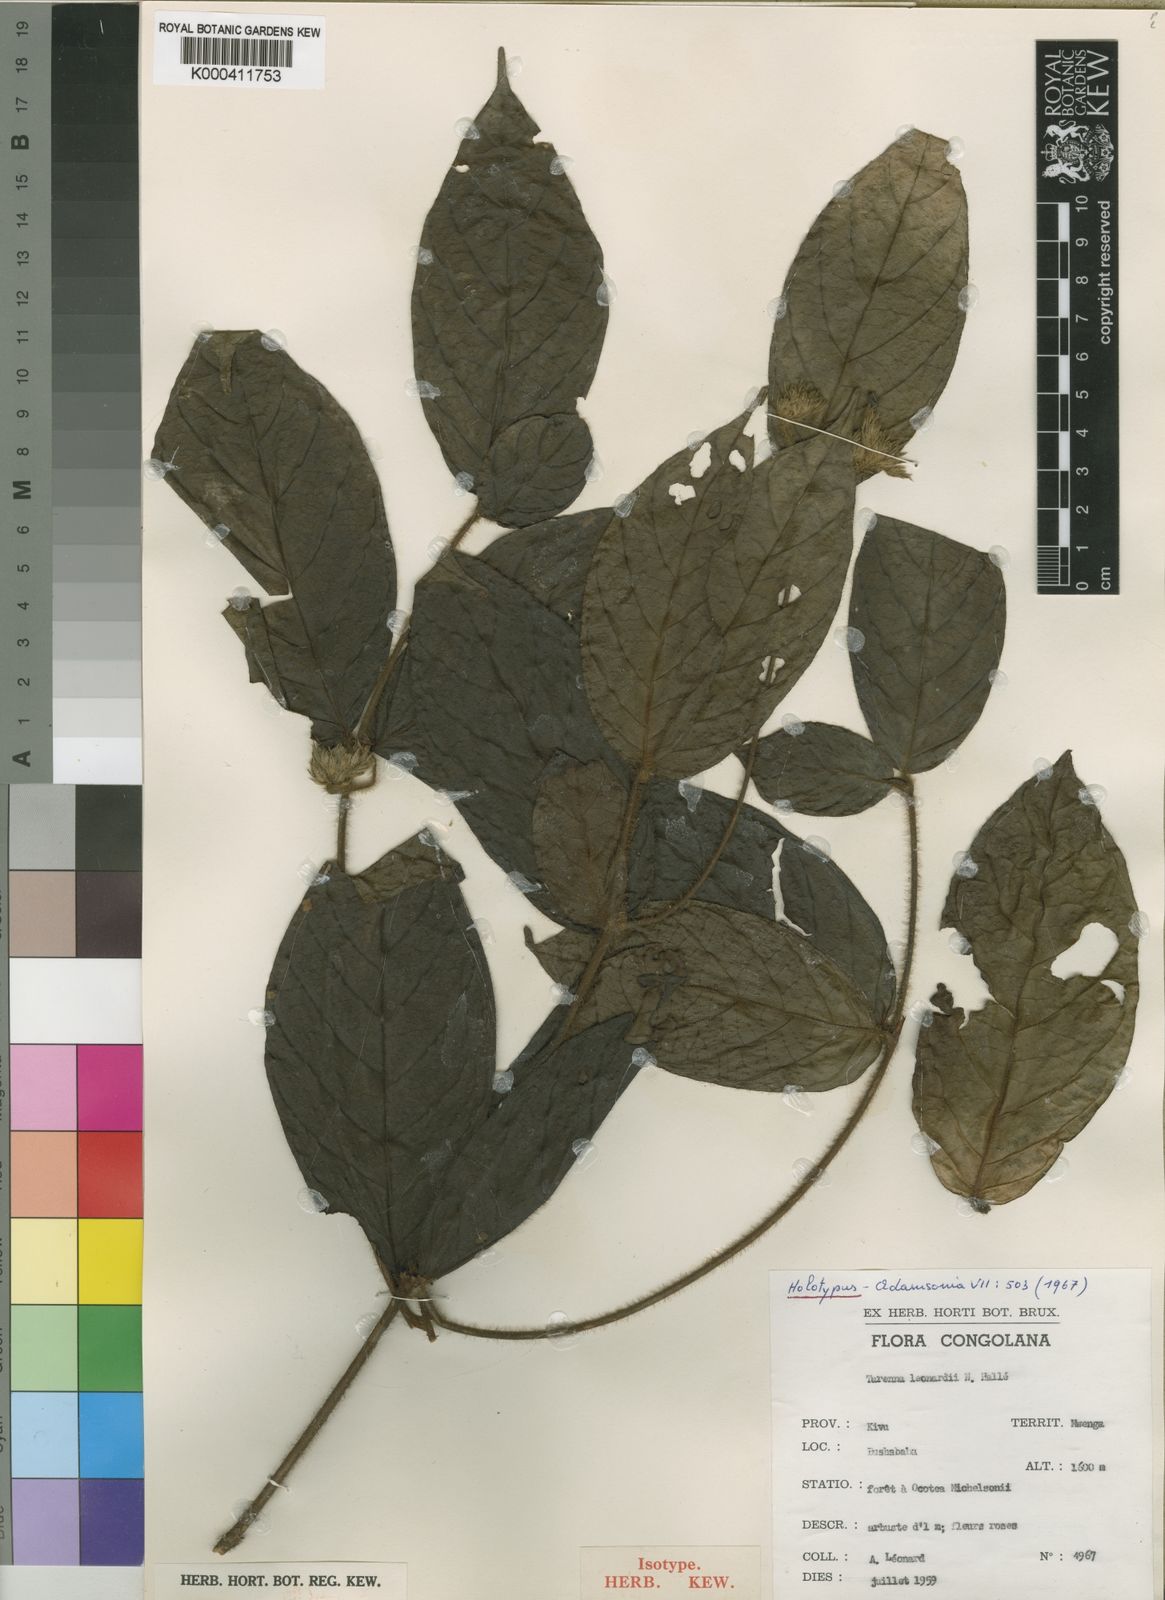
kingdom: Plantae
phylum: Tracheophyta
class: Magnoliopsida
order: Gentianales
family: Rubiaceae
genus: Tarenna
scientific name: Tarenna
